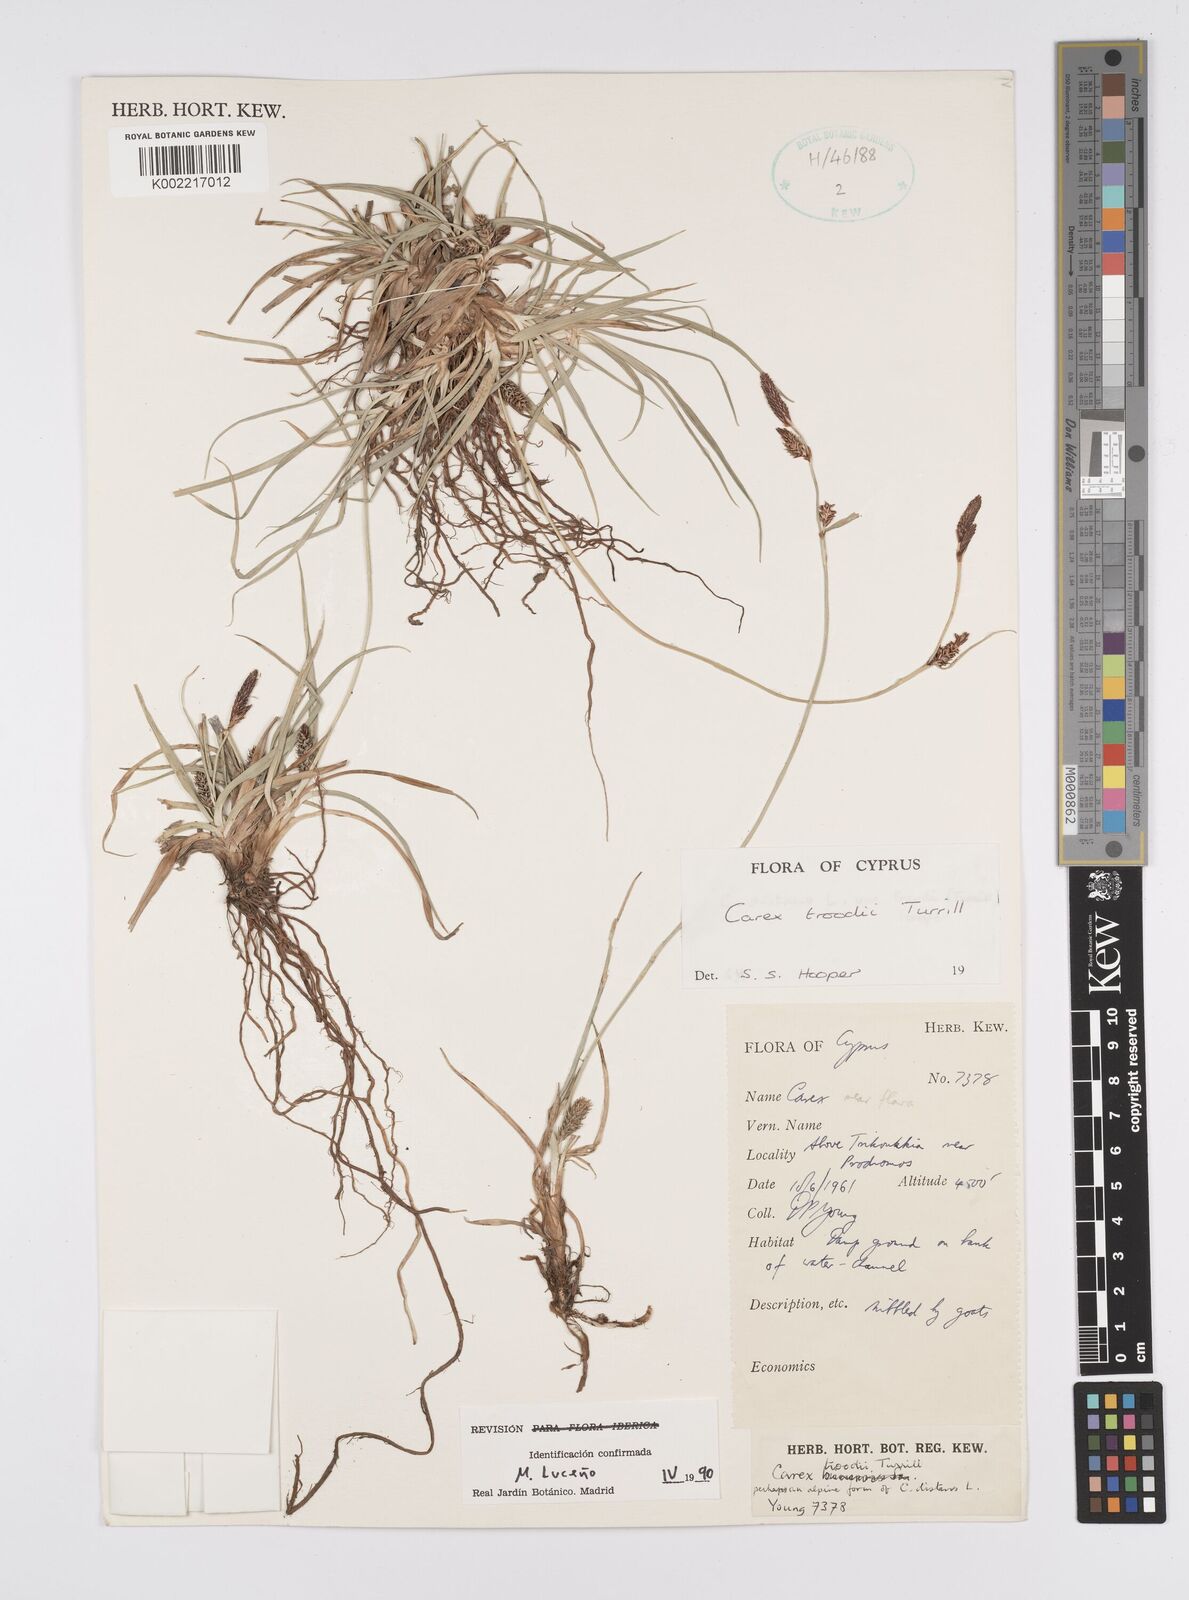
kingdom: Plantae
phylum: Tracheophyta
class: Liliopsida
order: Poales
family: Cyperaceae
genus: Carex
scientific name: Carex troodi
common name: Troodos mount sedge
